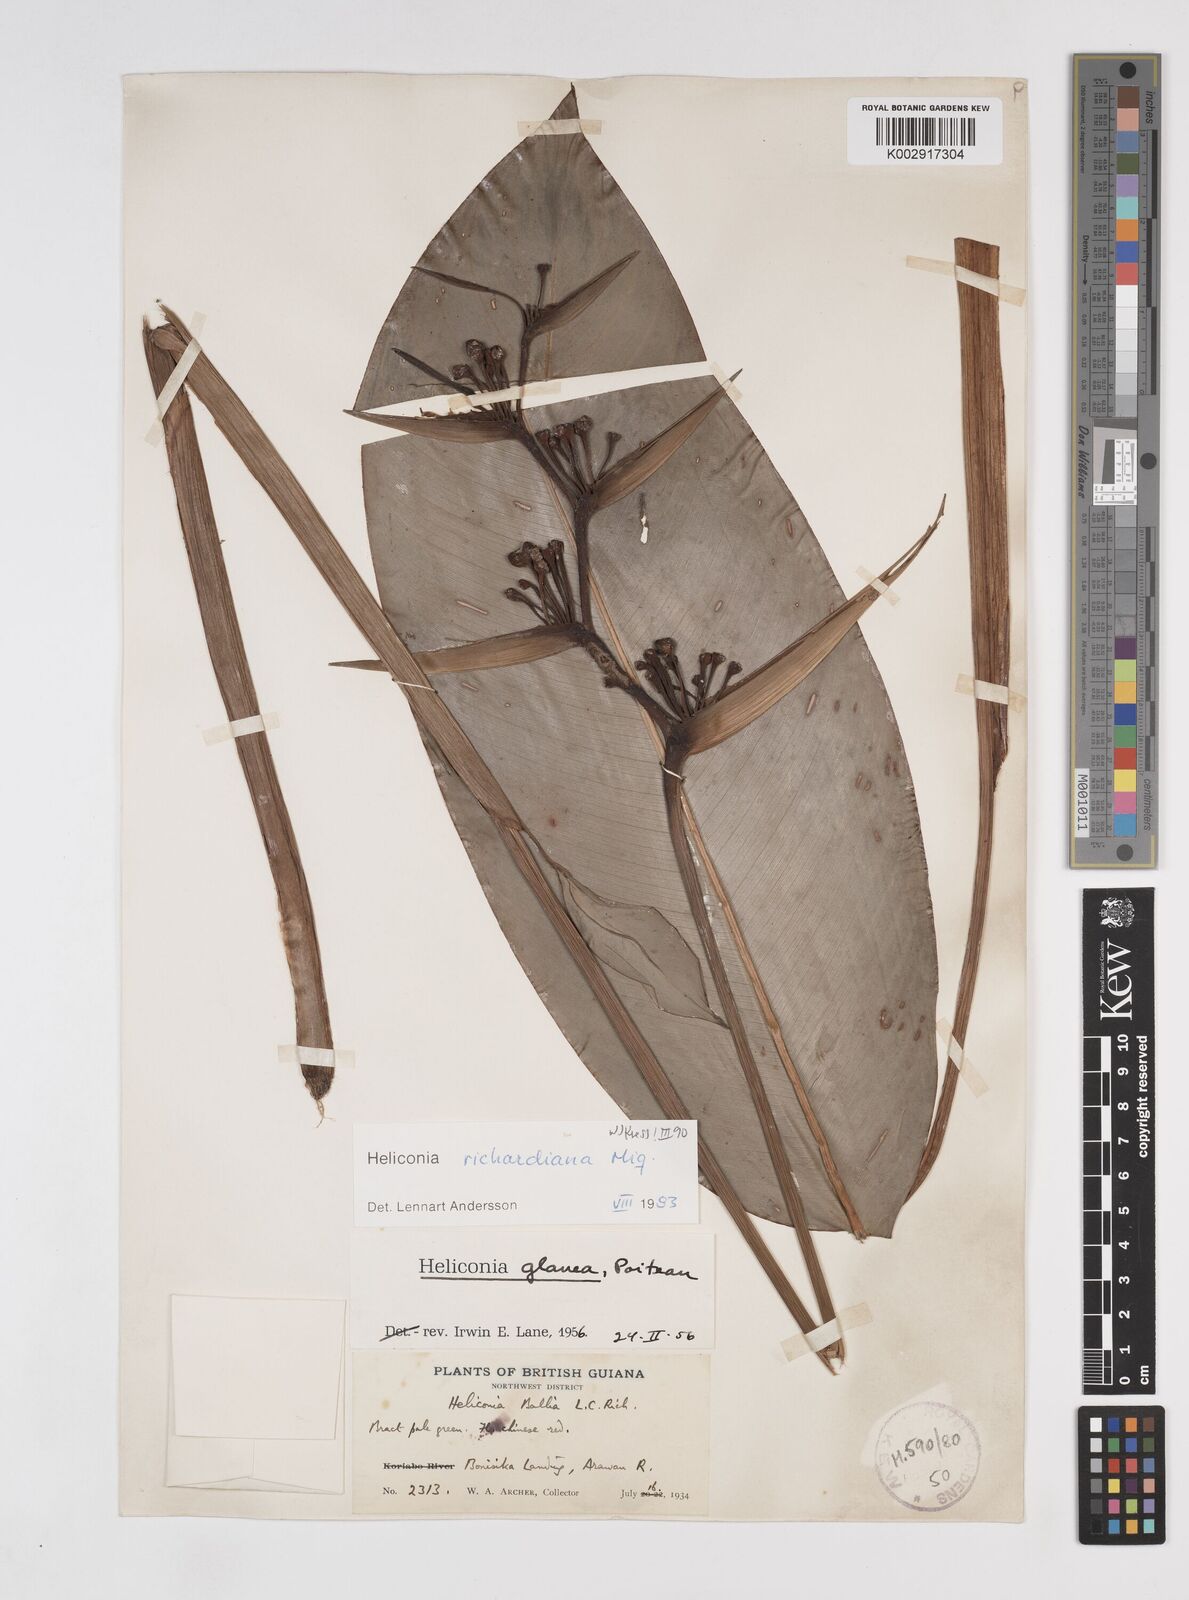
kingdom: Plantae
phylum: Tracheophyta
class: Liliopsida
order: Zingiberales
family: Heliconiaceae
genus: Heliconia
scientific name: Heliconia richardiana
